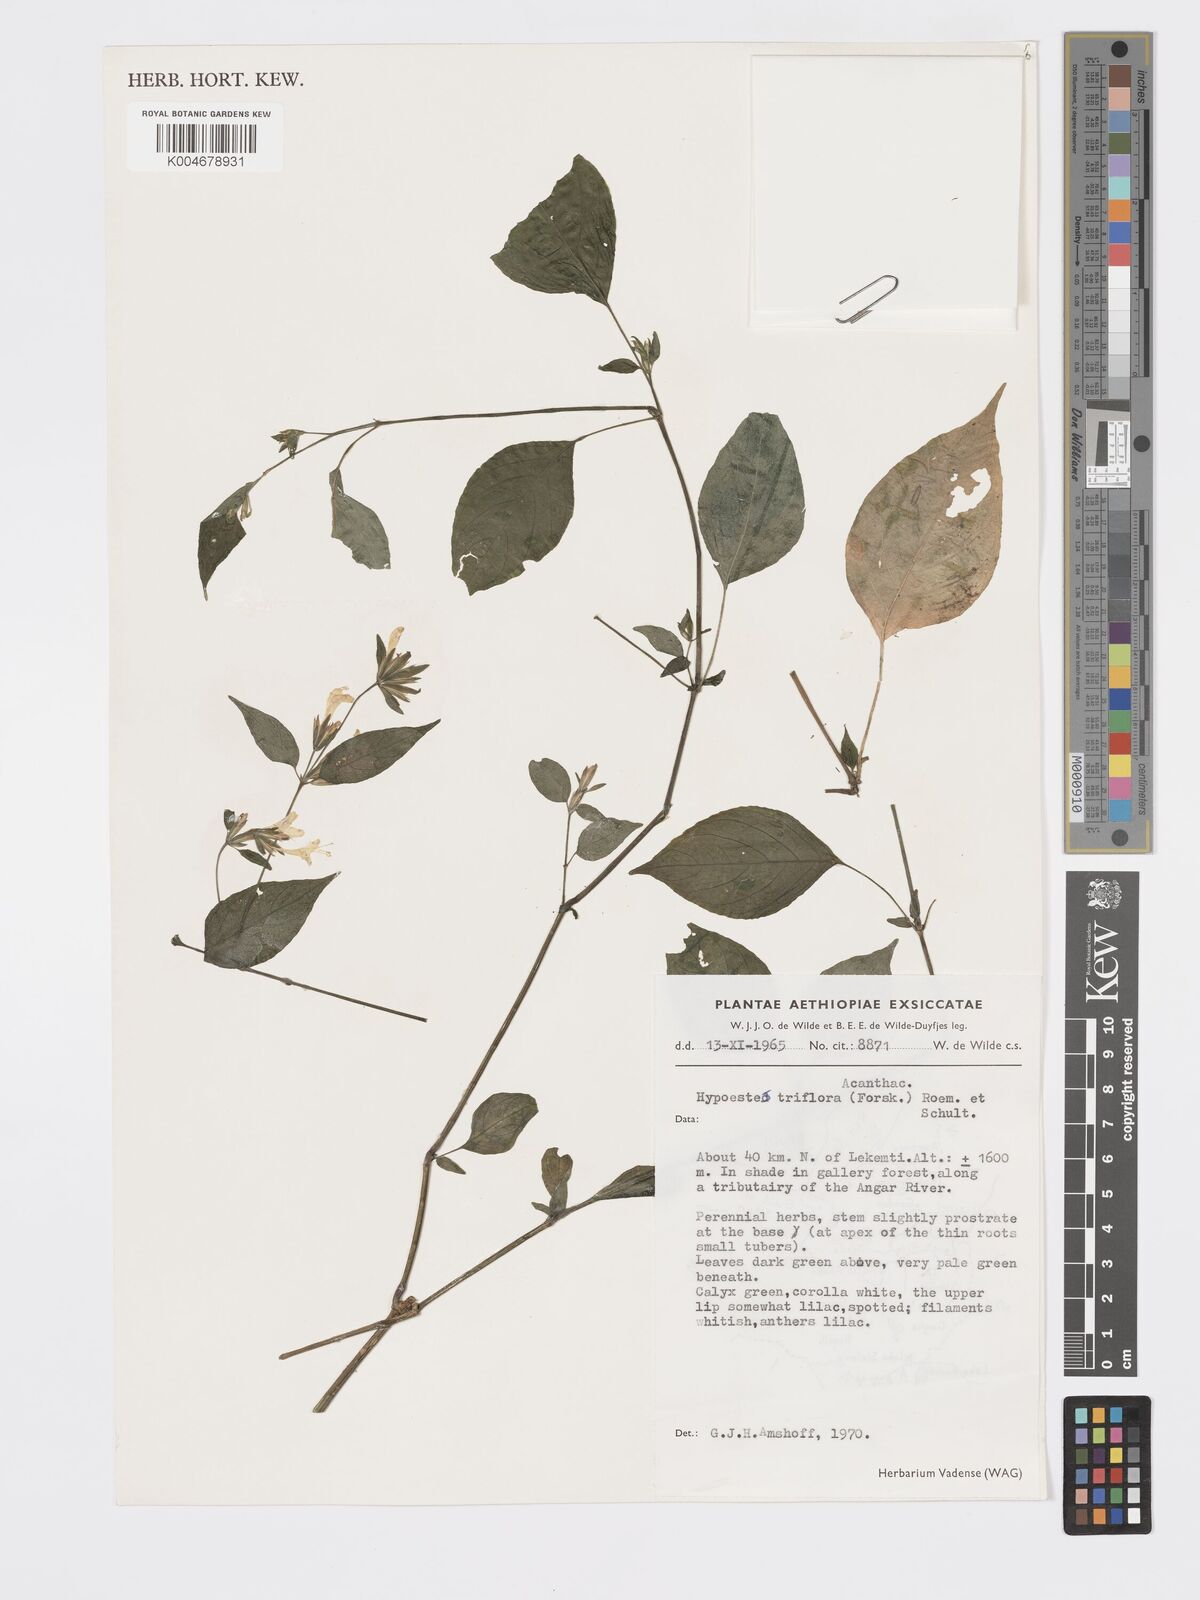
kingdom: Plantae
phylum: Tracheophyta
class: Magnoliopsida
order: Lamiales
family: Acanthaceae
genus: Hypoestes
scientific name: Hypoestes triflora
